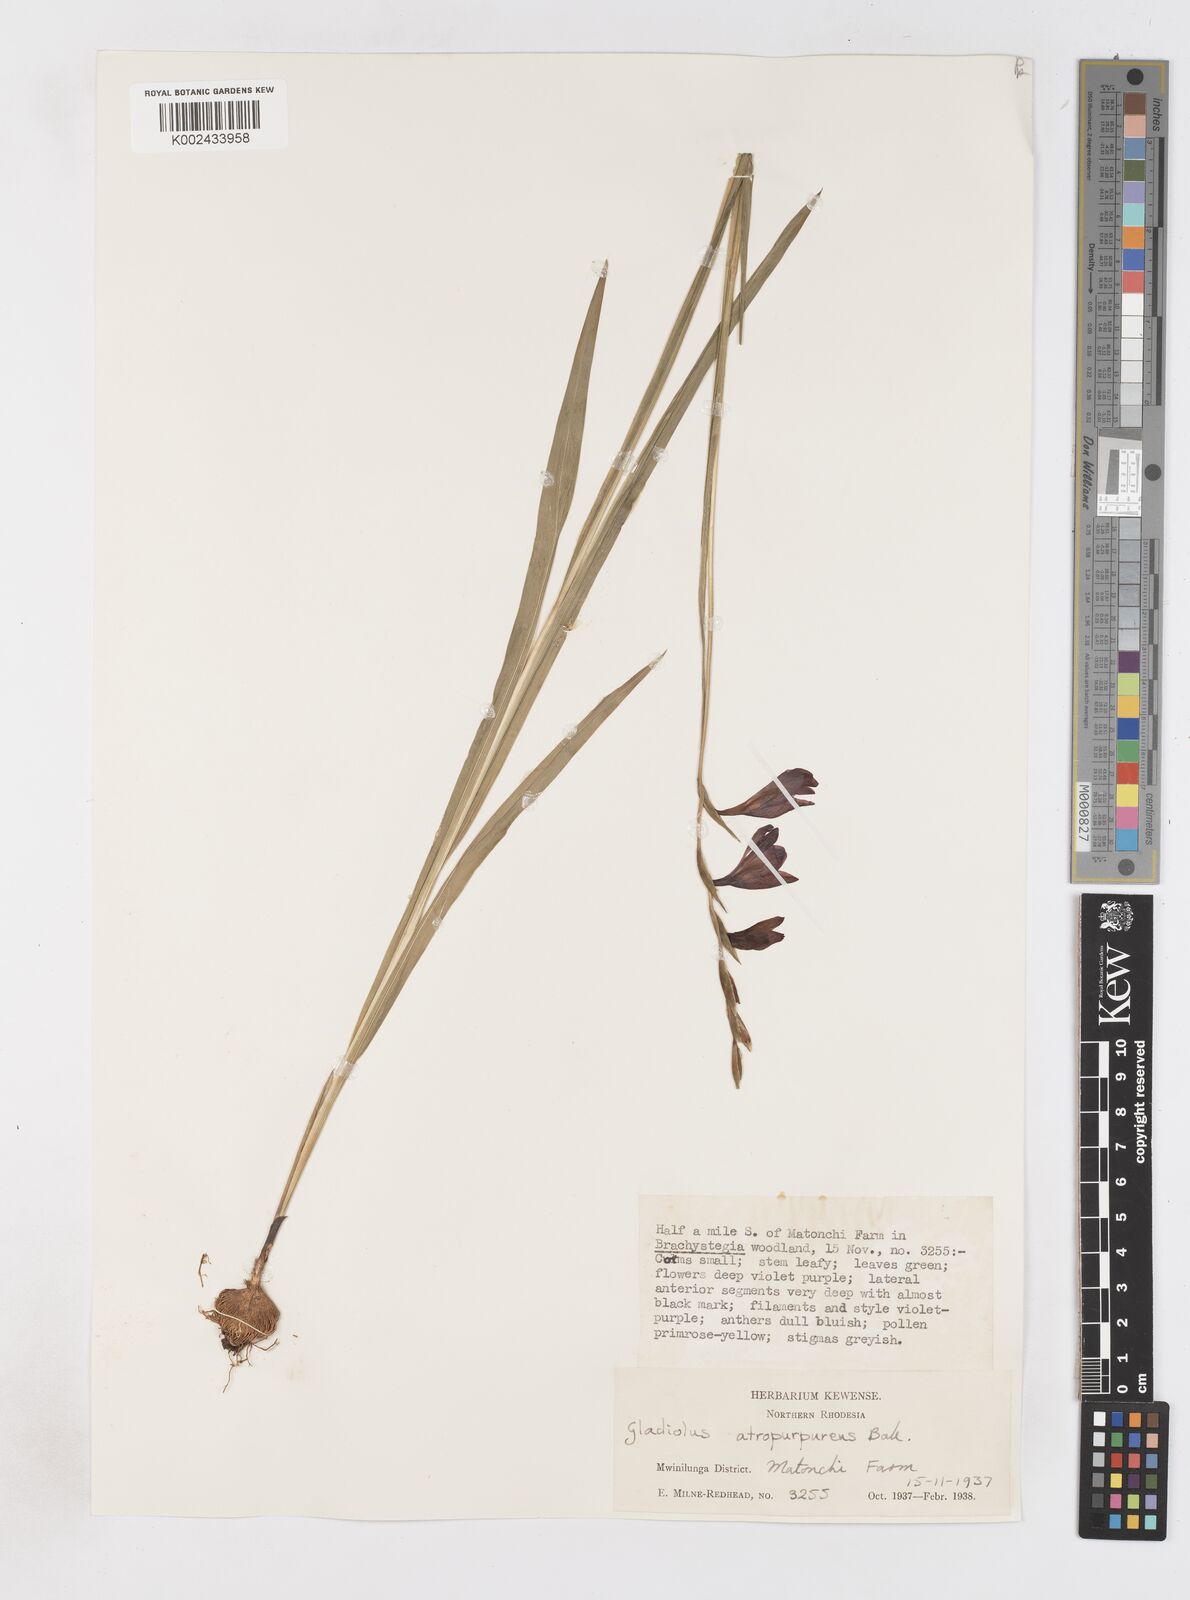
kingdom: Plantae
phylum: Tracheophyta
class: Liliopsida
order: Asparagales
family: Iridaceae
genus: Gladiolus
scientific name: Gladiolus atropurpureus
